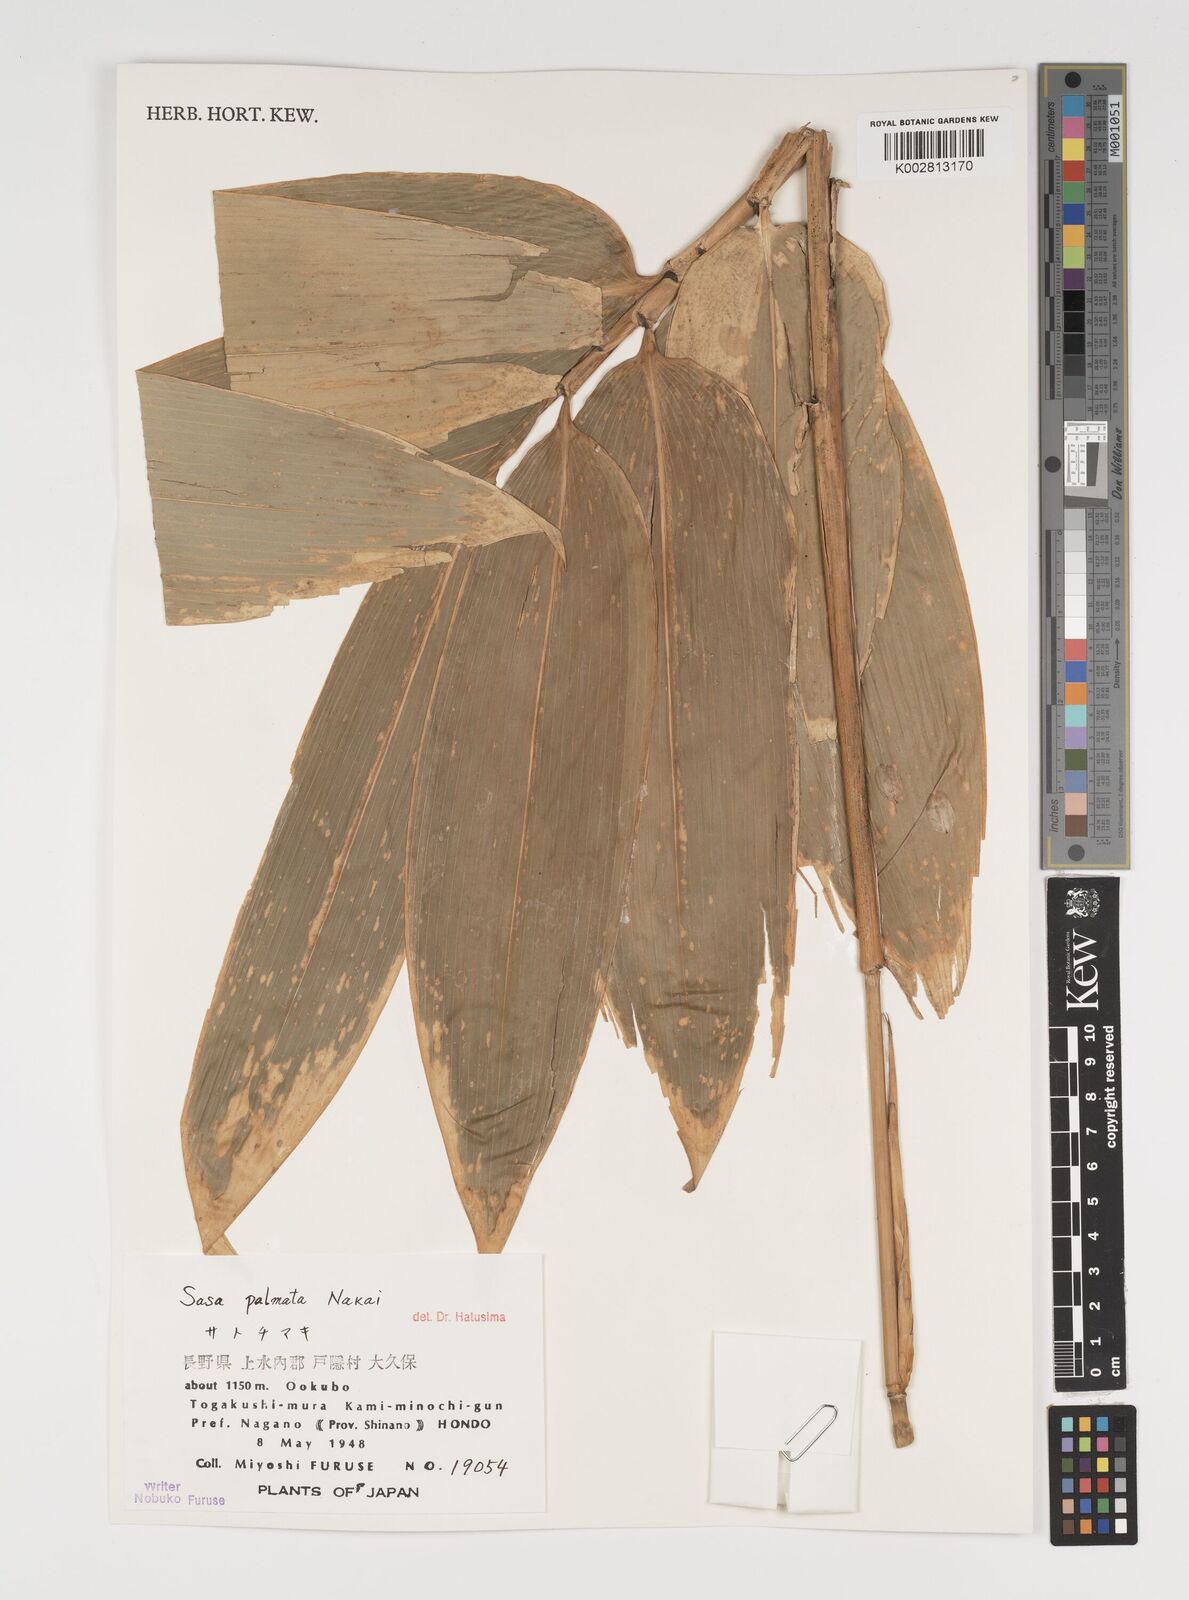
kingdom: Plantae
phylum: Tracheophyta
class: Liliopsida
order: Poales
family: Poaceae
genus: Sasa
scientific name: Sasa palmata
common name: Broad-leaved bamboo
